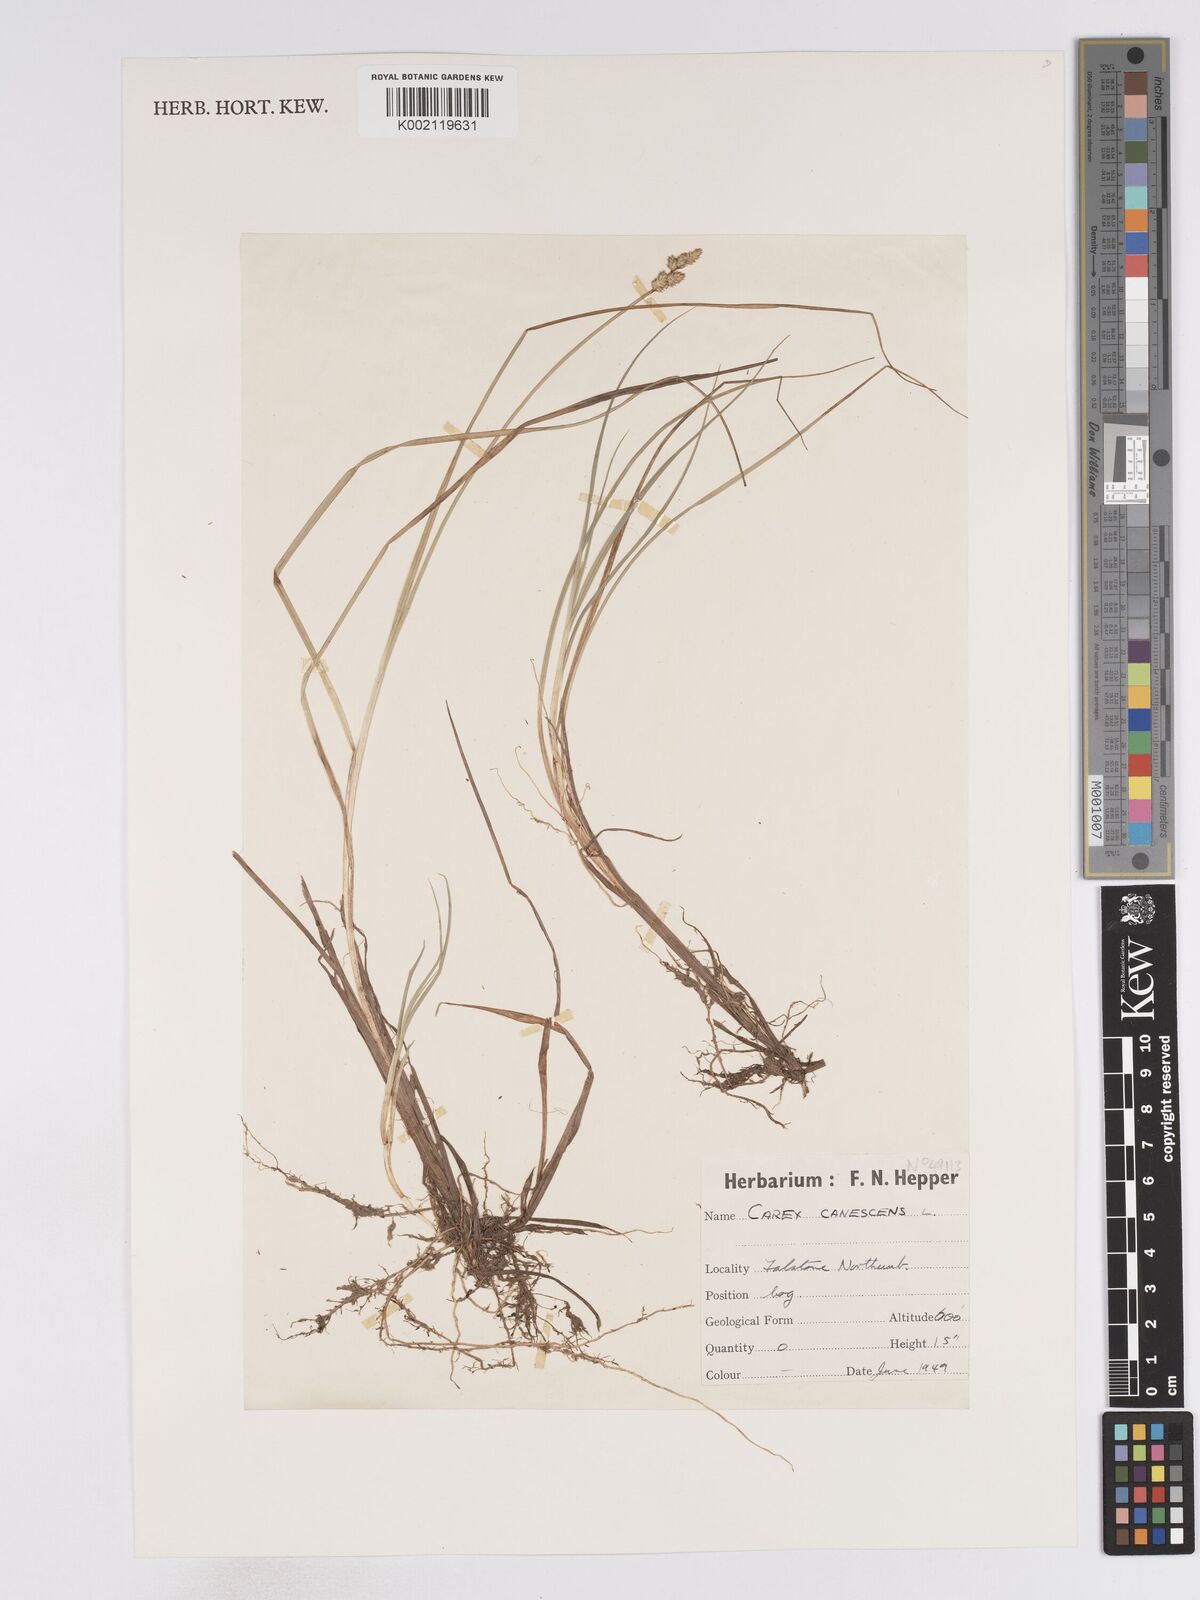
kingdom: Plantae
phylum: Tracheophyta
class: Liliopsida
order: Poales
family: Cyperaceae
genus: Carex
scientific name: Carex curta
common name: White sedge
